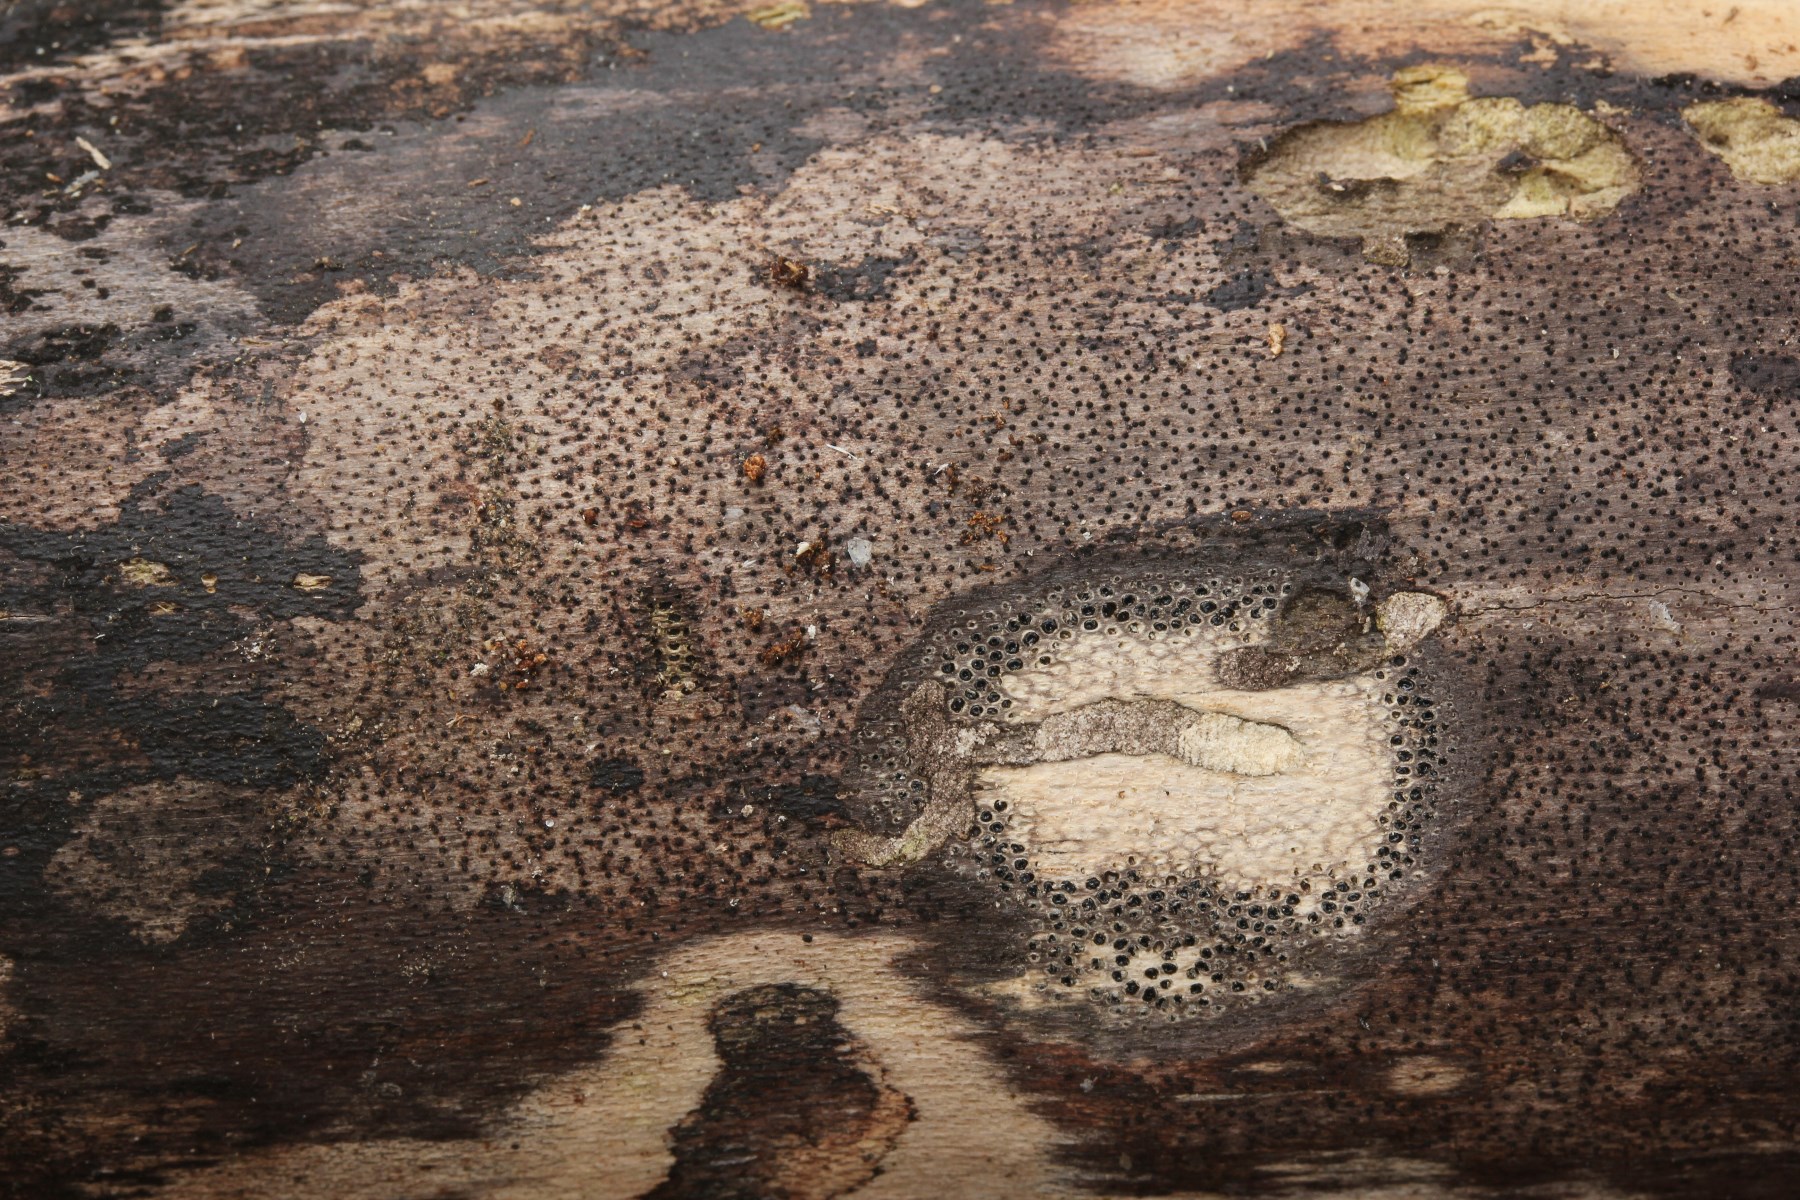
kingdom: Fungi
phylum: Ascomycota
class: Sordariomycetes
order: Xylariales
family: Diatrypaceae
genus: Eutypa
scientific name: Eutypa maura
